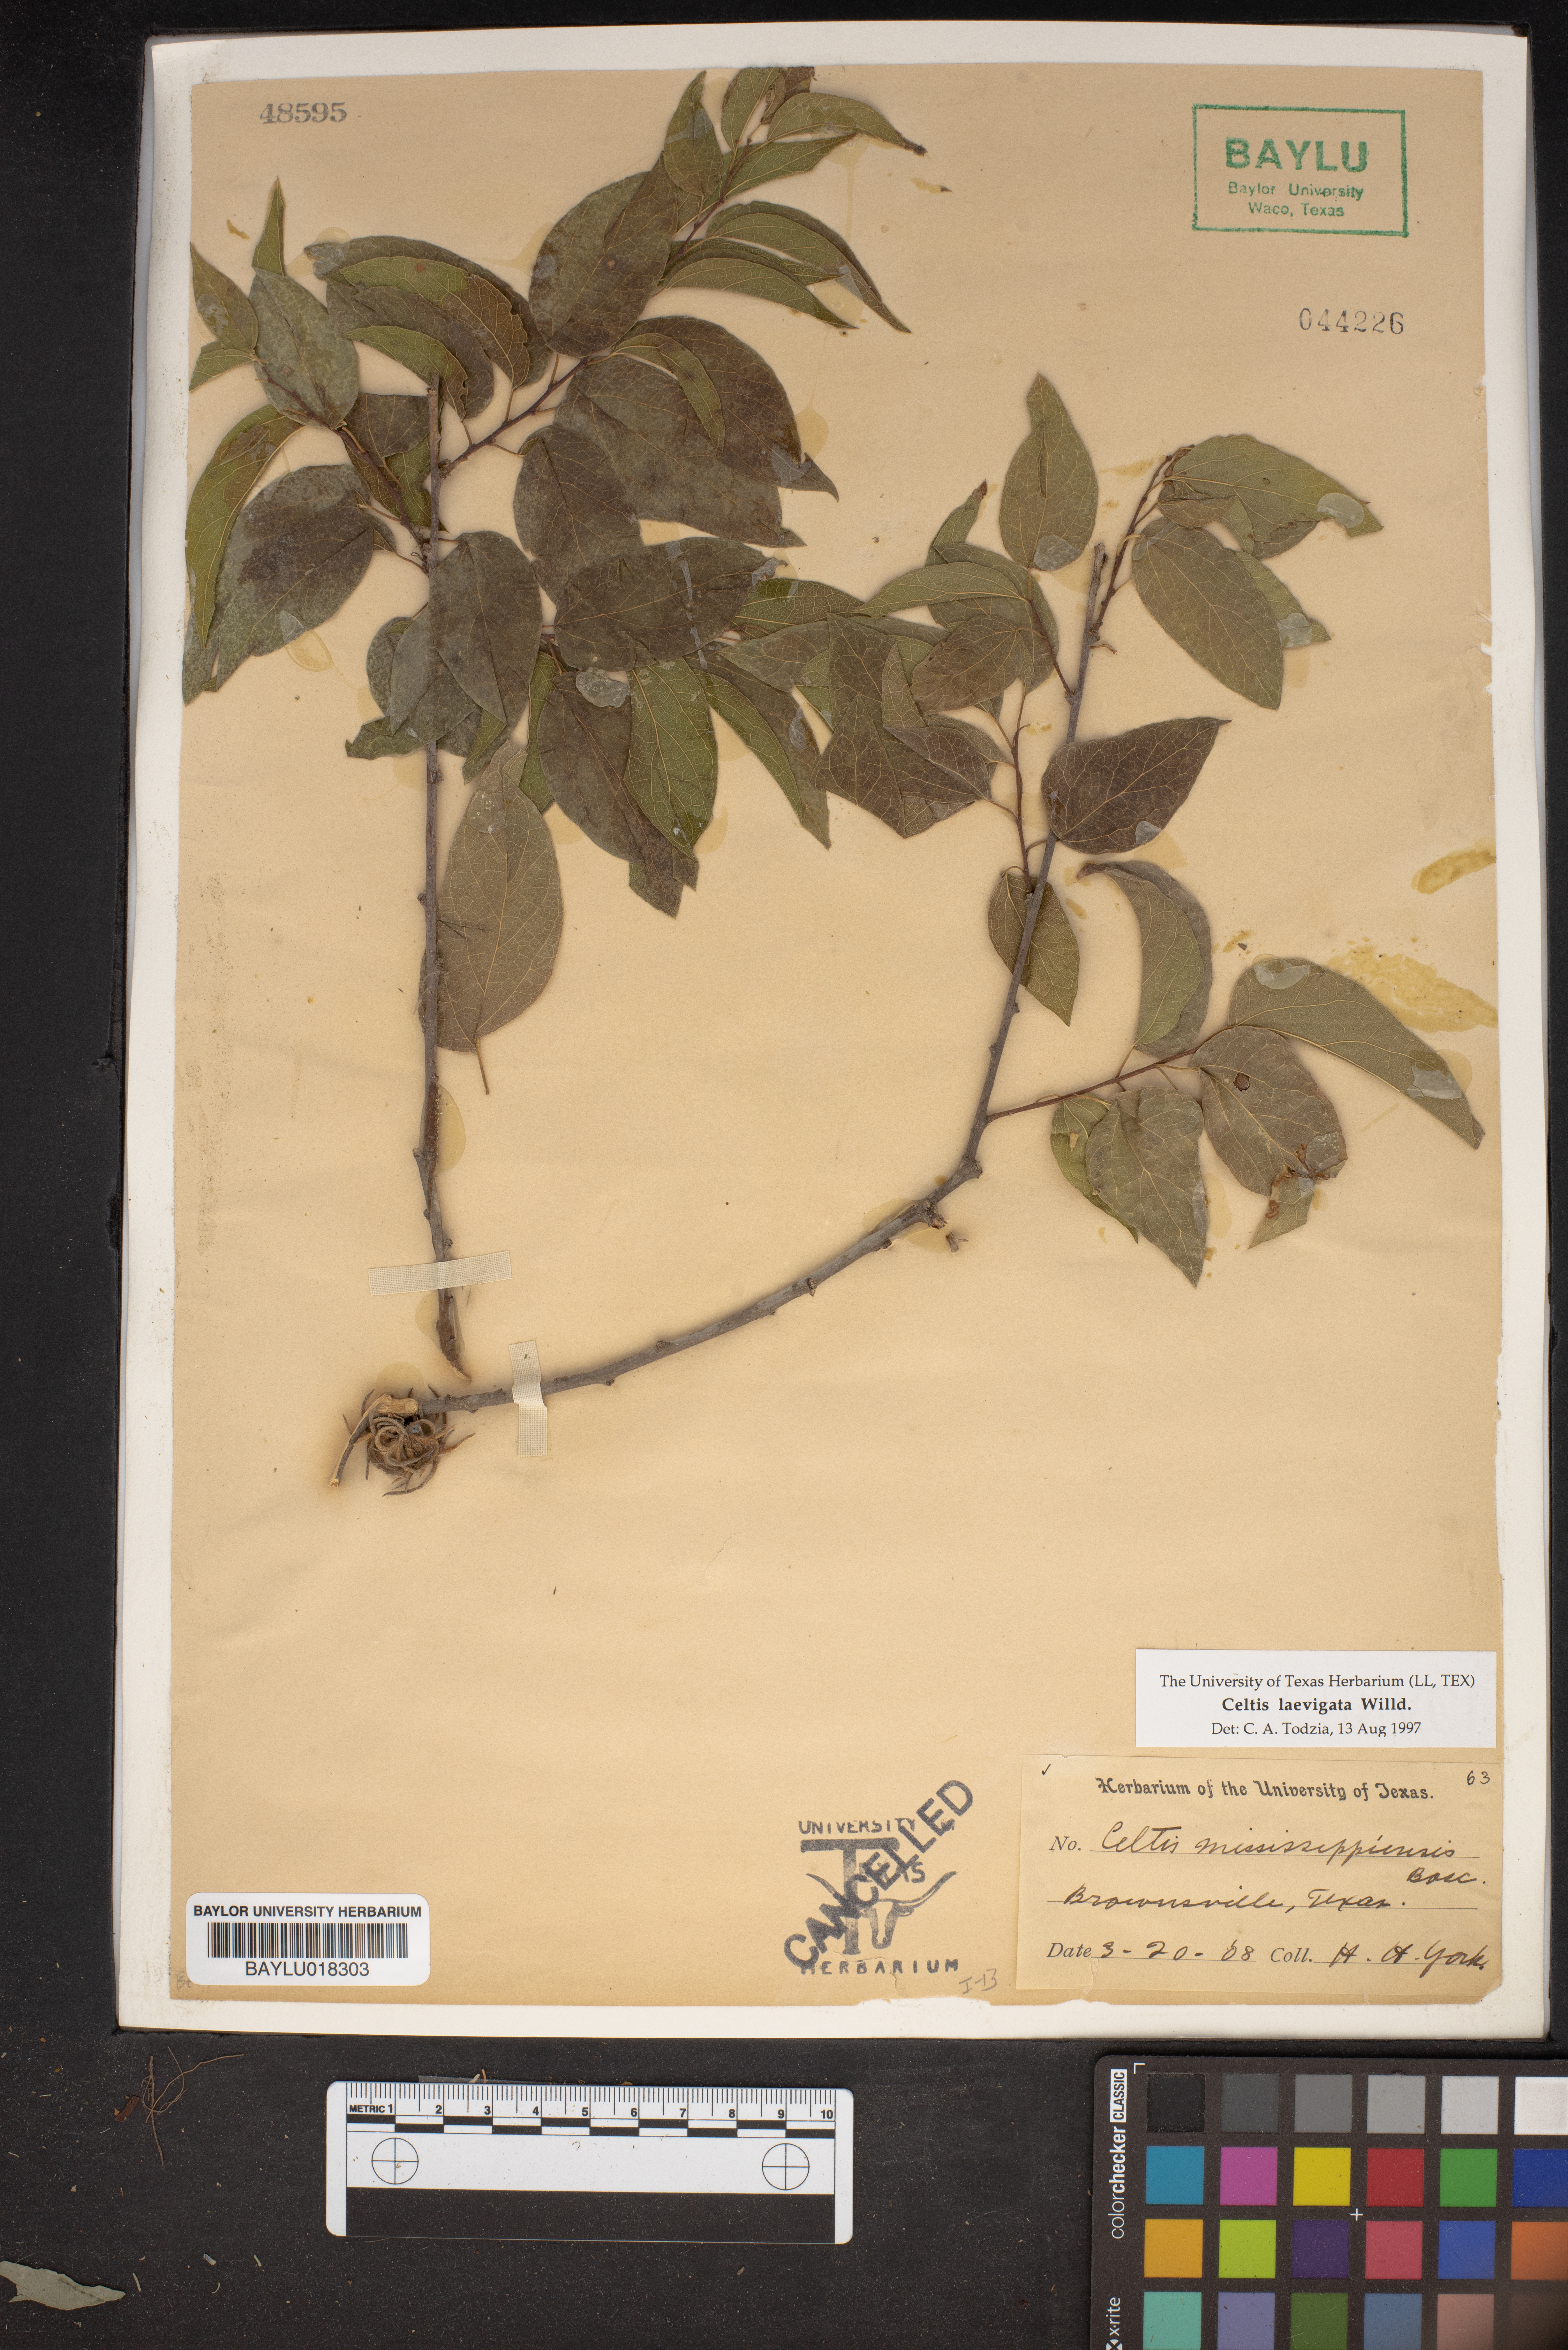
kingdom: Plantae
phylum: Tracheophyta
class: Magnoliopsida
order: Rosales
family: Cannabaceae
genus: Celtis
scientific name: Celtis laevigata
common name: Sugarberry
